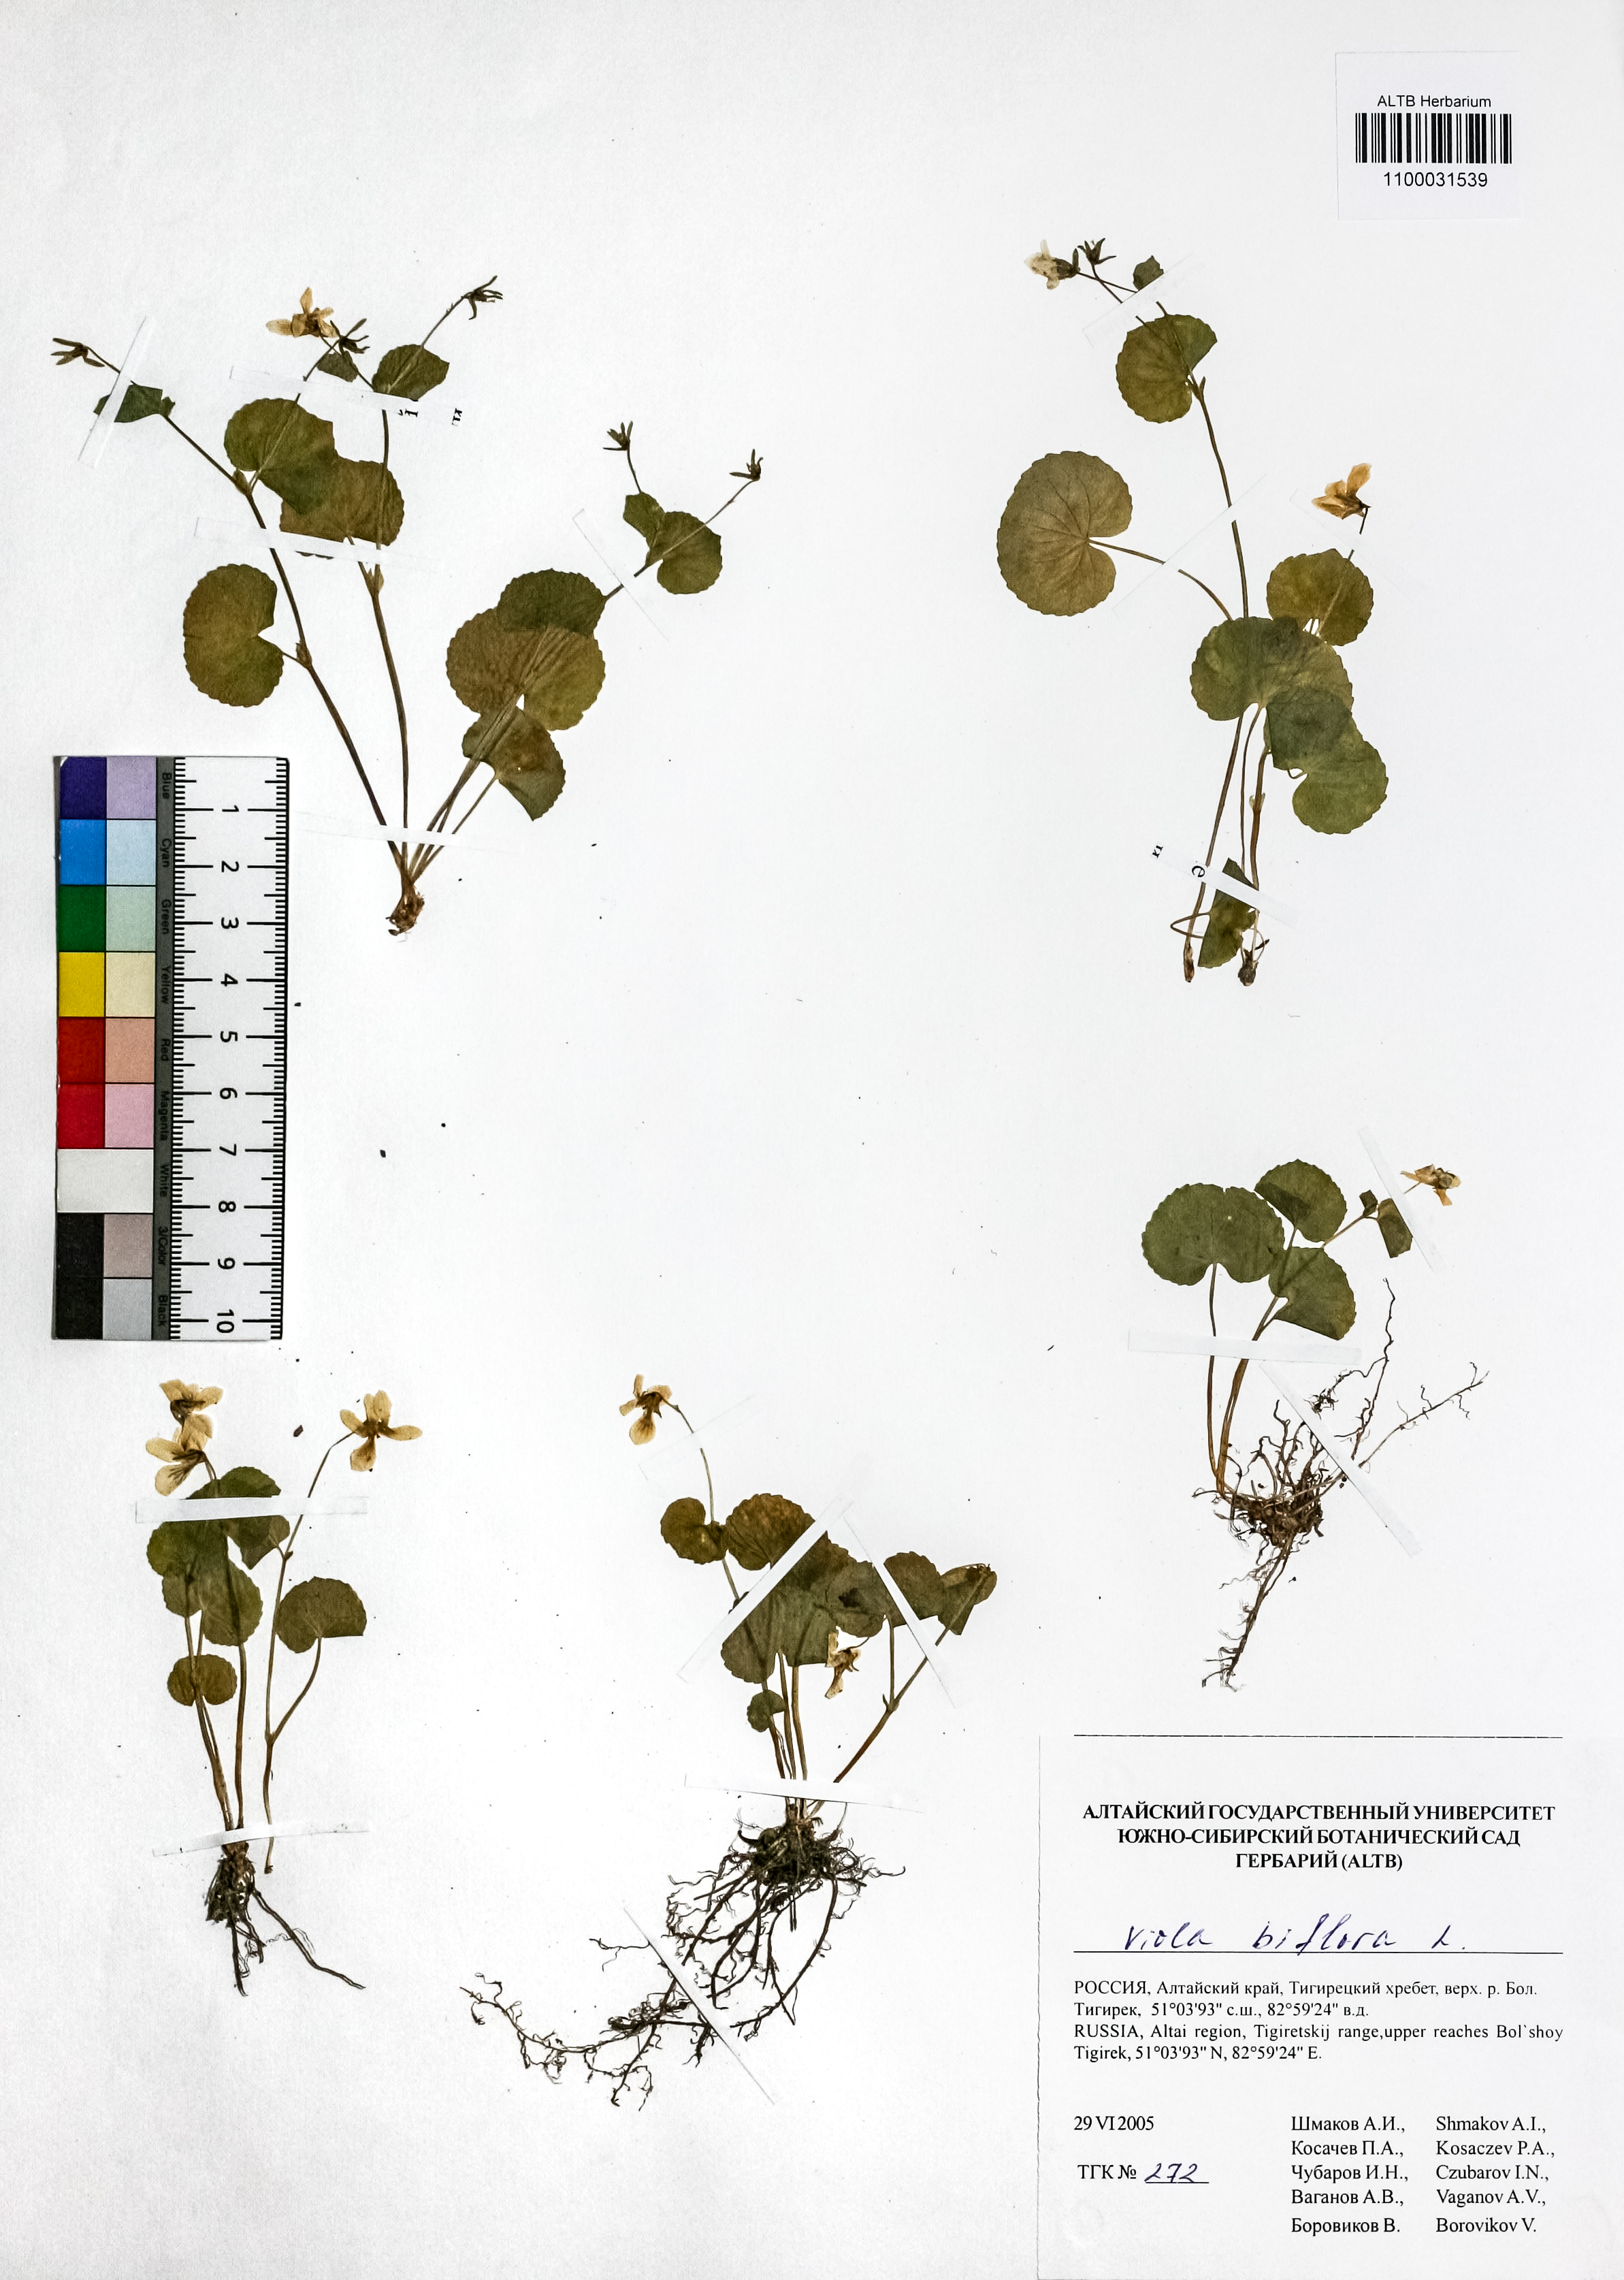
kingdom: Plantae
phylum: Tracheophyta
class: Magnoliopsida
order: Malpighiales
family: Violaceae
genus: Viola
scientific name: Viola biflora
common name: Alpine yellow violet
